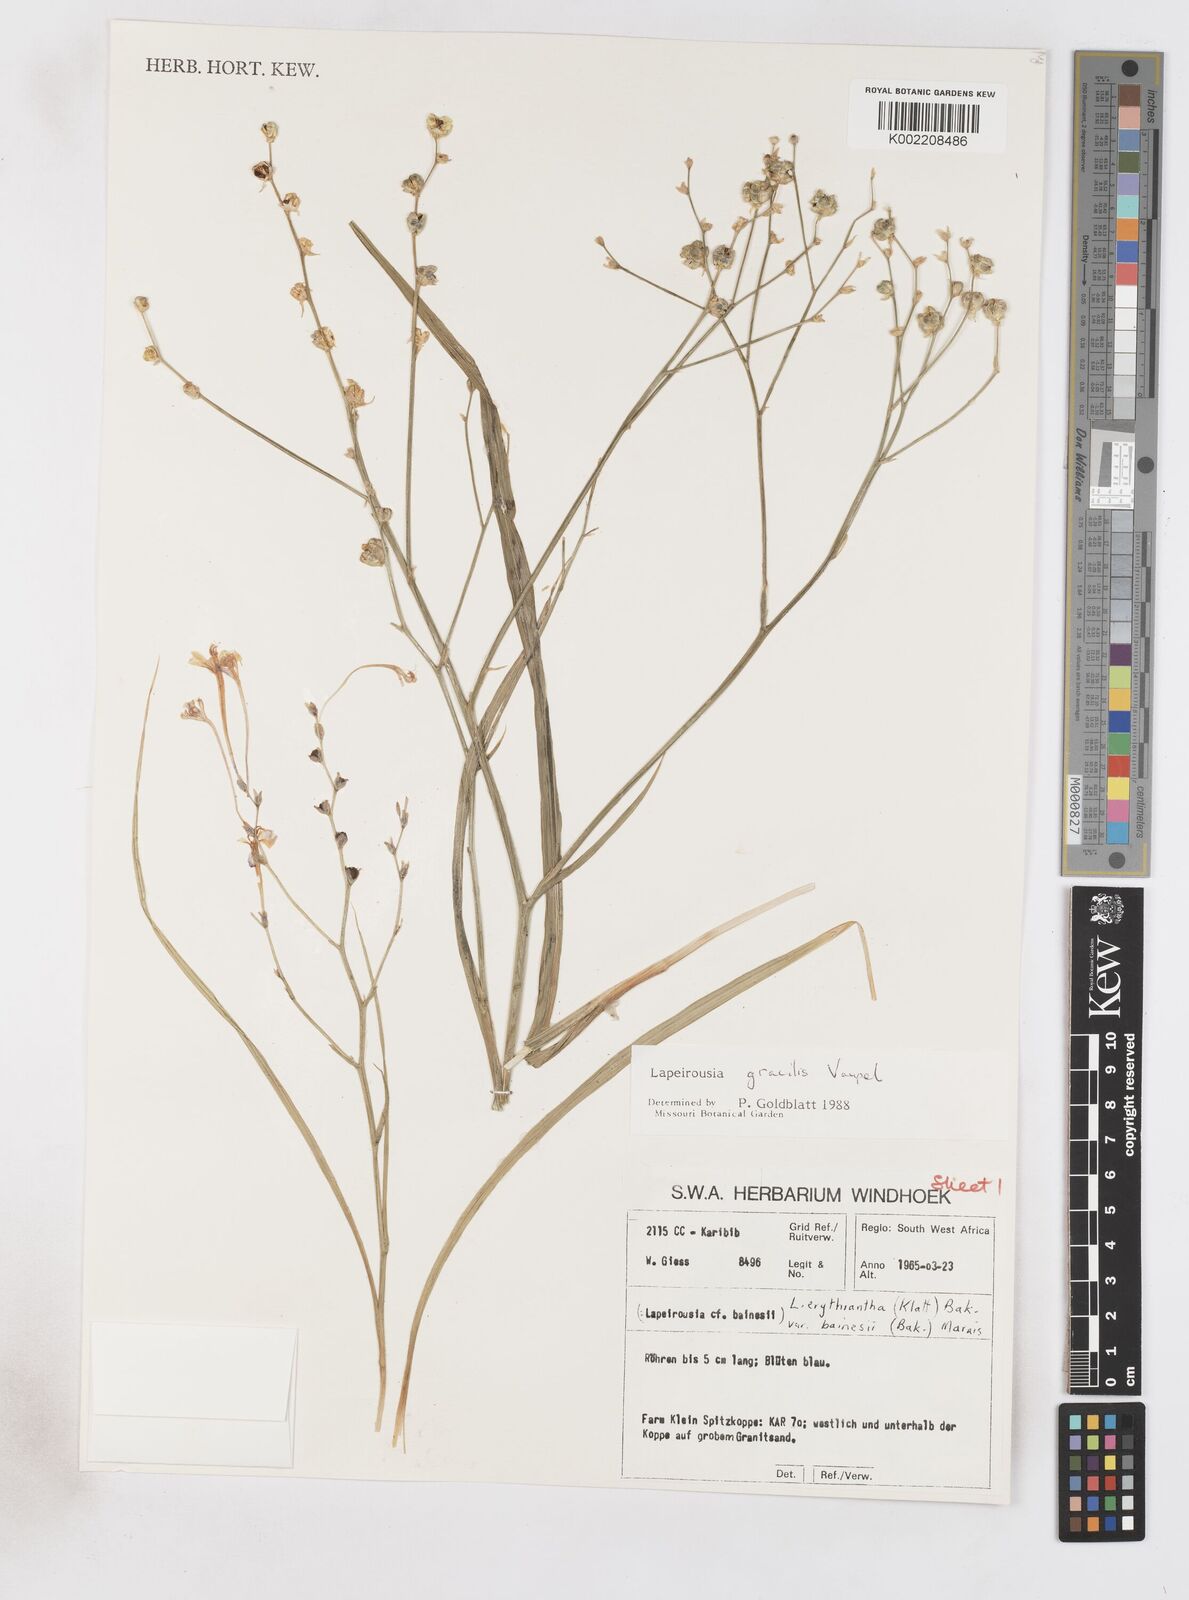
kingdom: Plantae
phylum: Tracheophyta
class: Liliopsida
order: Asparagales
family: Iridaceae
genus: Afrosolen
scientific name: Afrosolen gracilis
